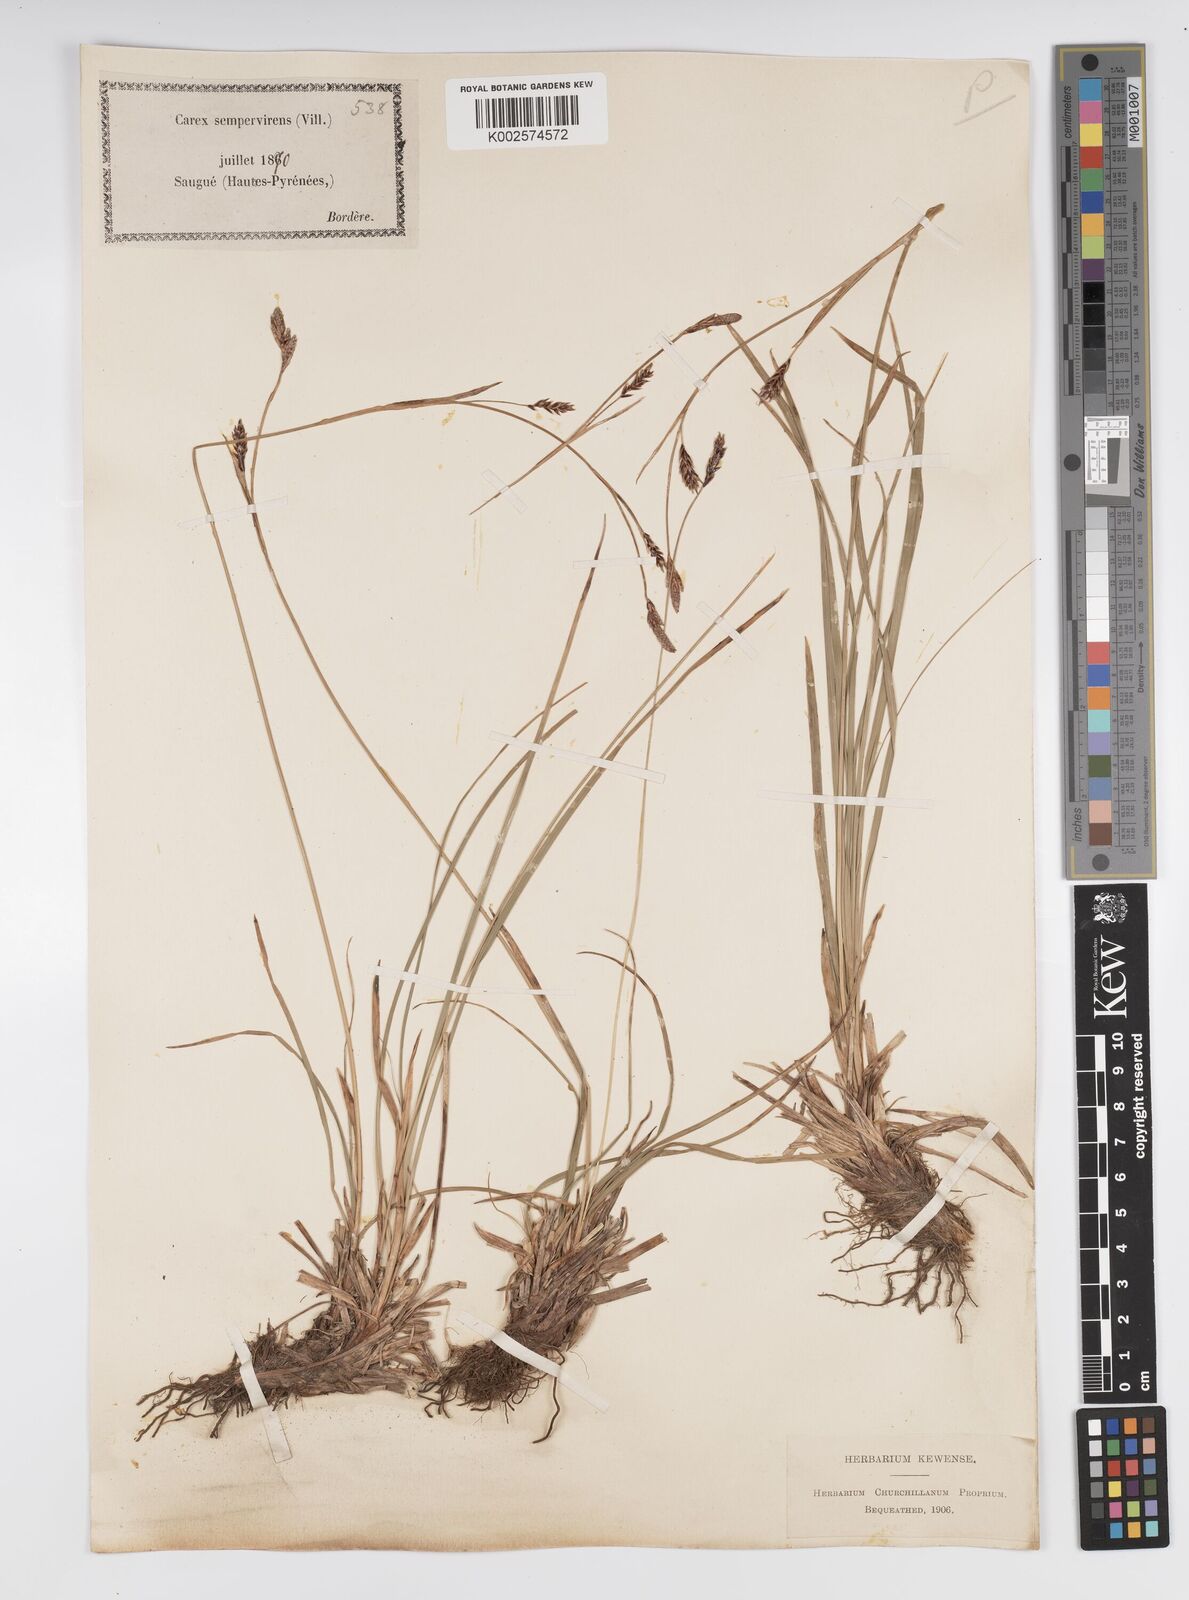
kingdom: Plantae
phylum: Tracheophyta
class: Liliopsida
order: Poales
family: Cyperaceae
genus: Carex
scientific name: Carex sempervirens
